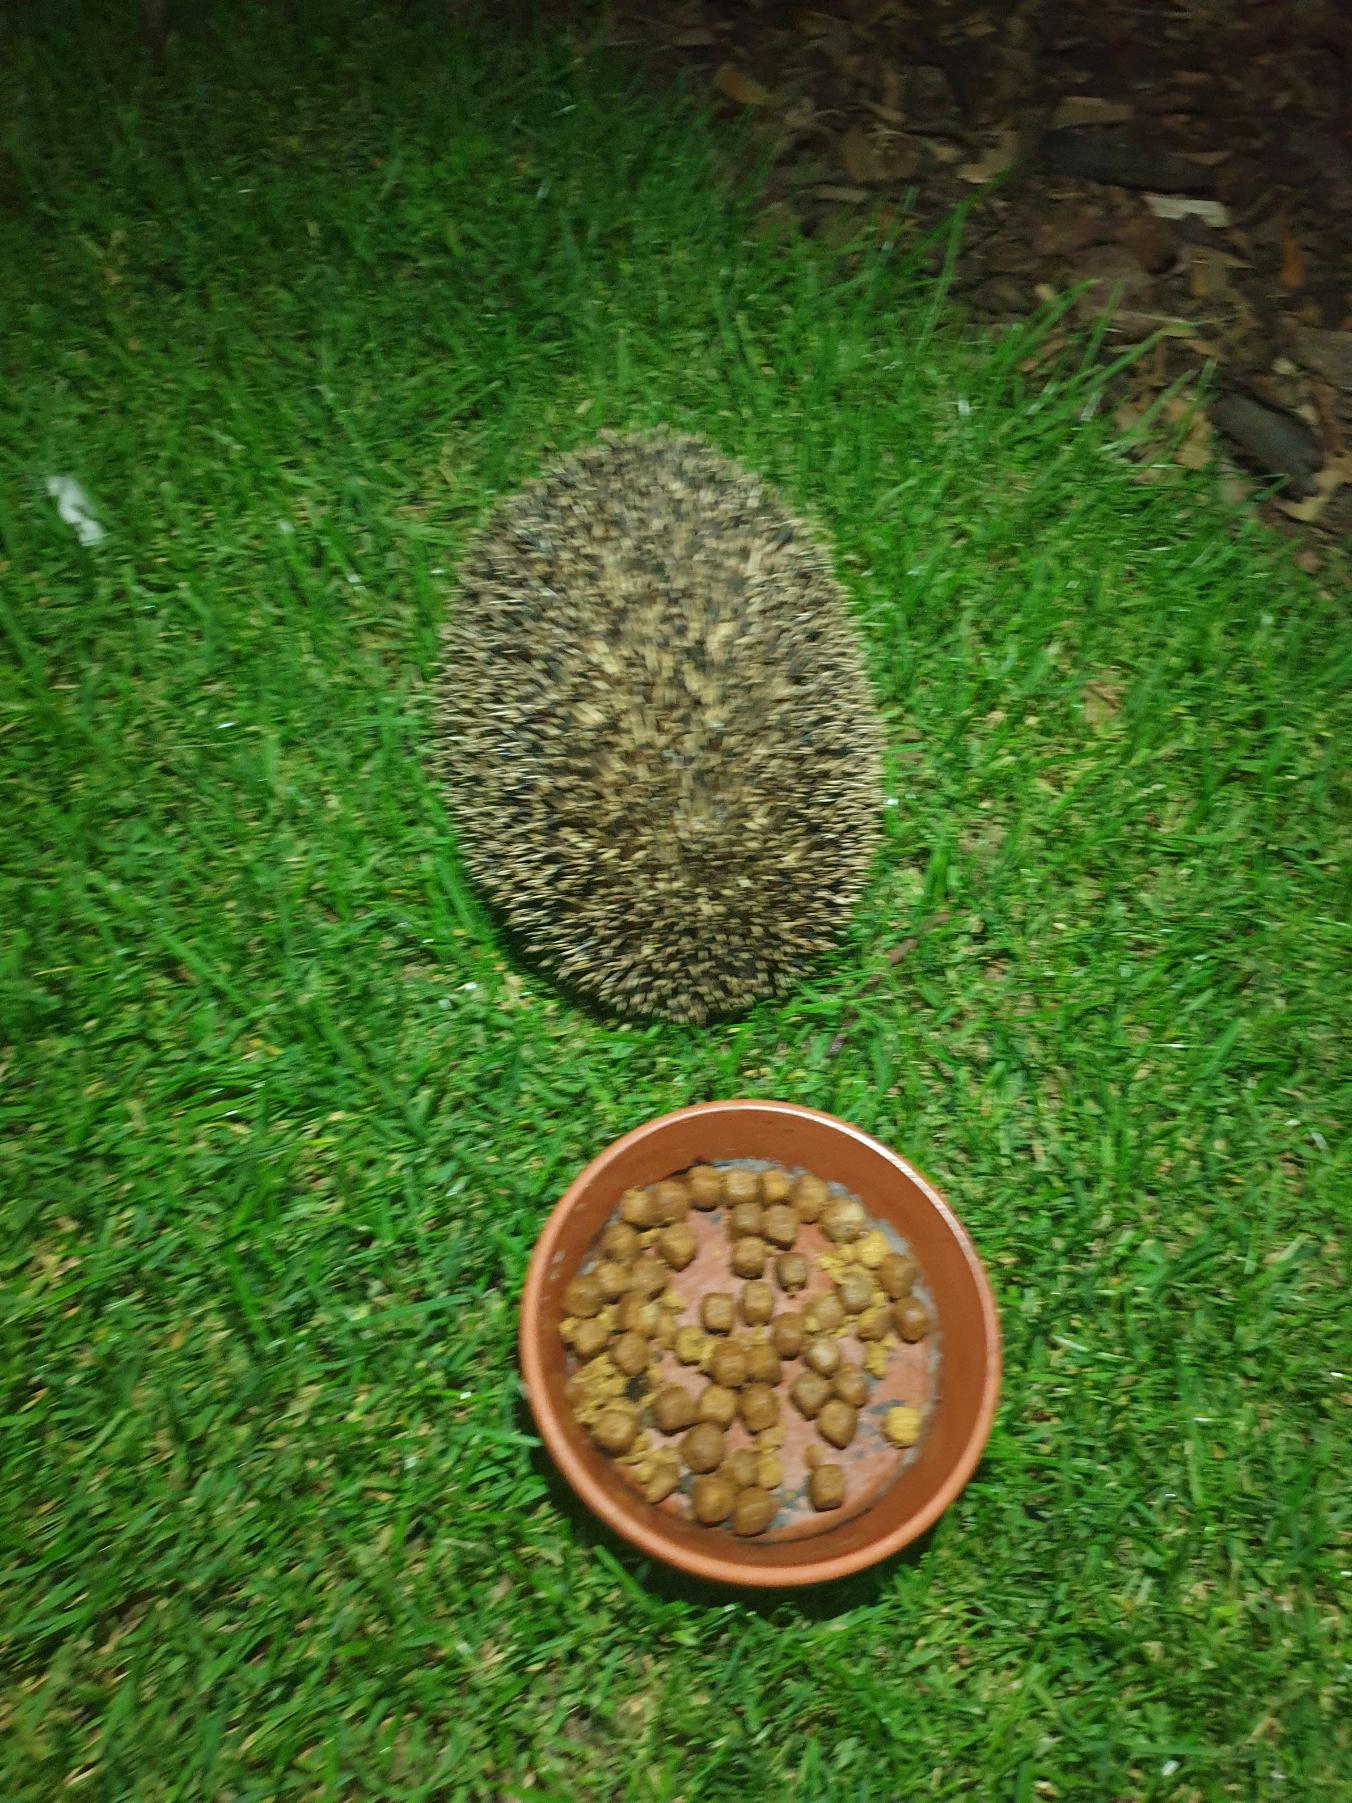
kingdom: Animalia
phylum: Chordata
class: Mammalia
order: Erinaceomorpha
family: Erinaceidae
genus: Erinaceus
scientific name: Erinaceus europaeus
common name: Pindsvin
